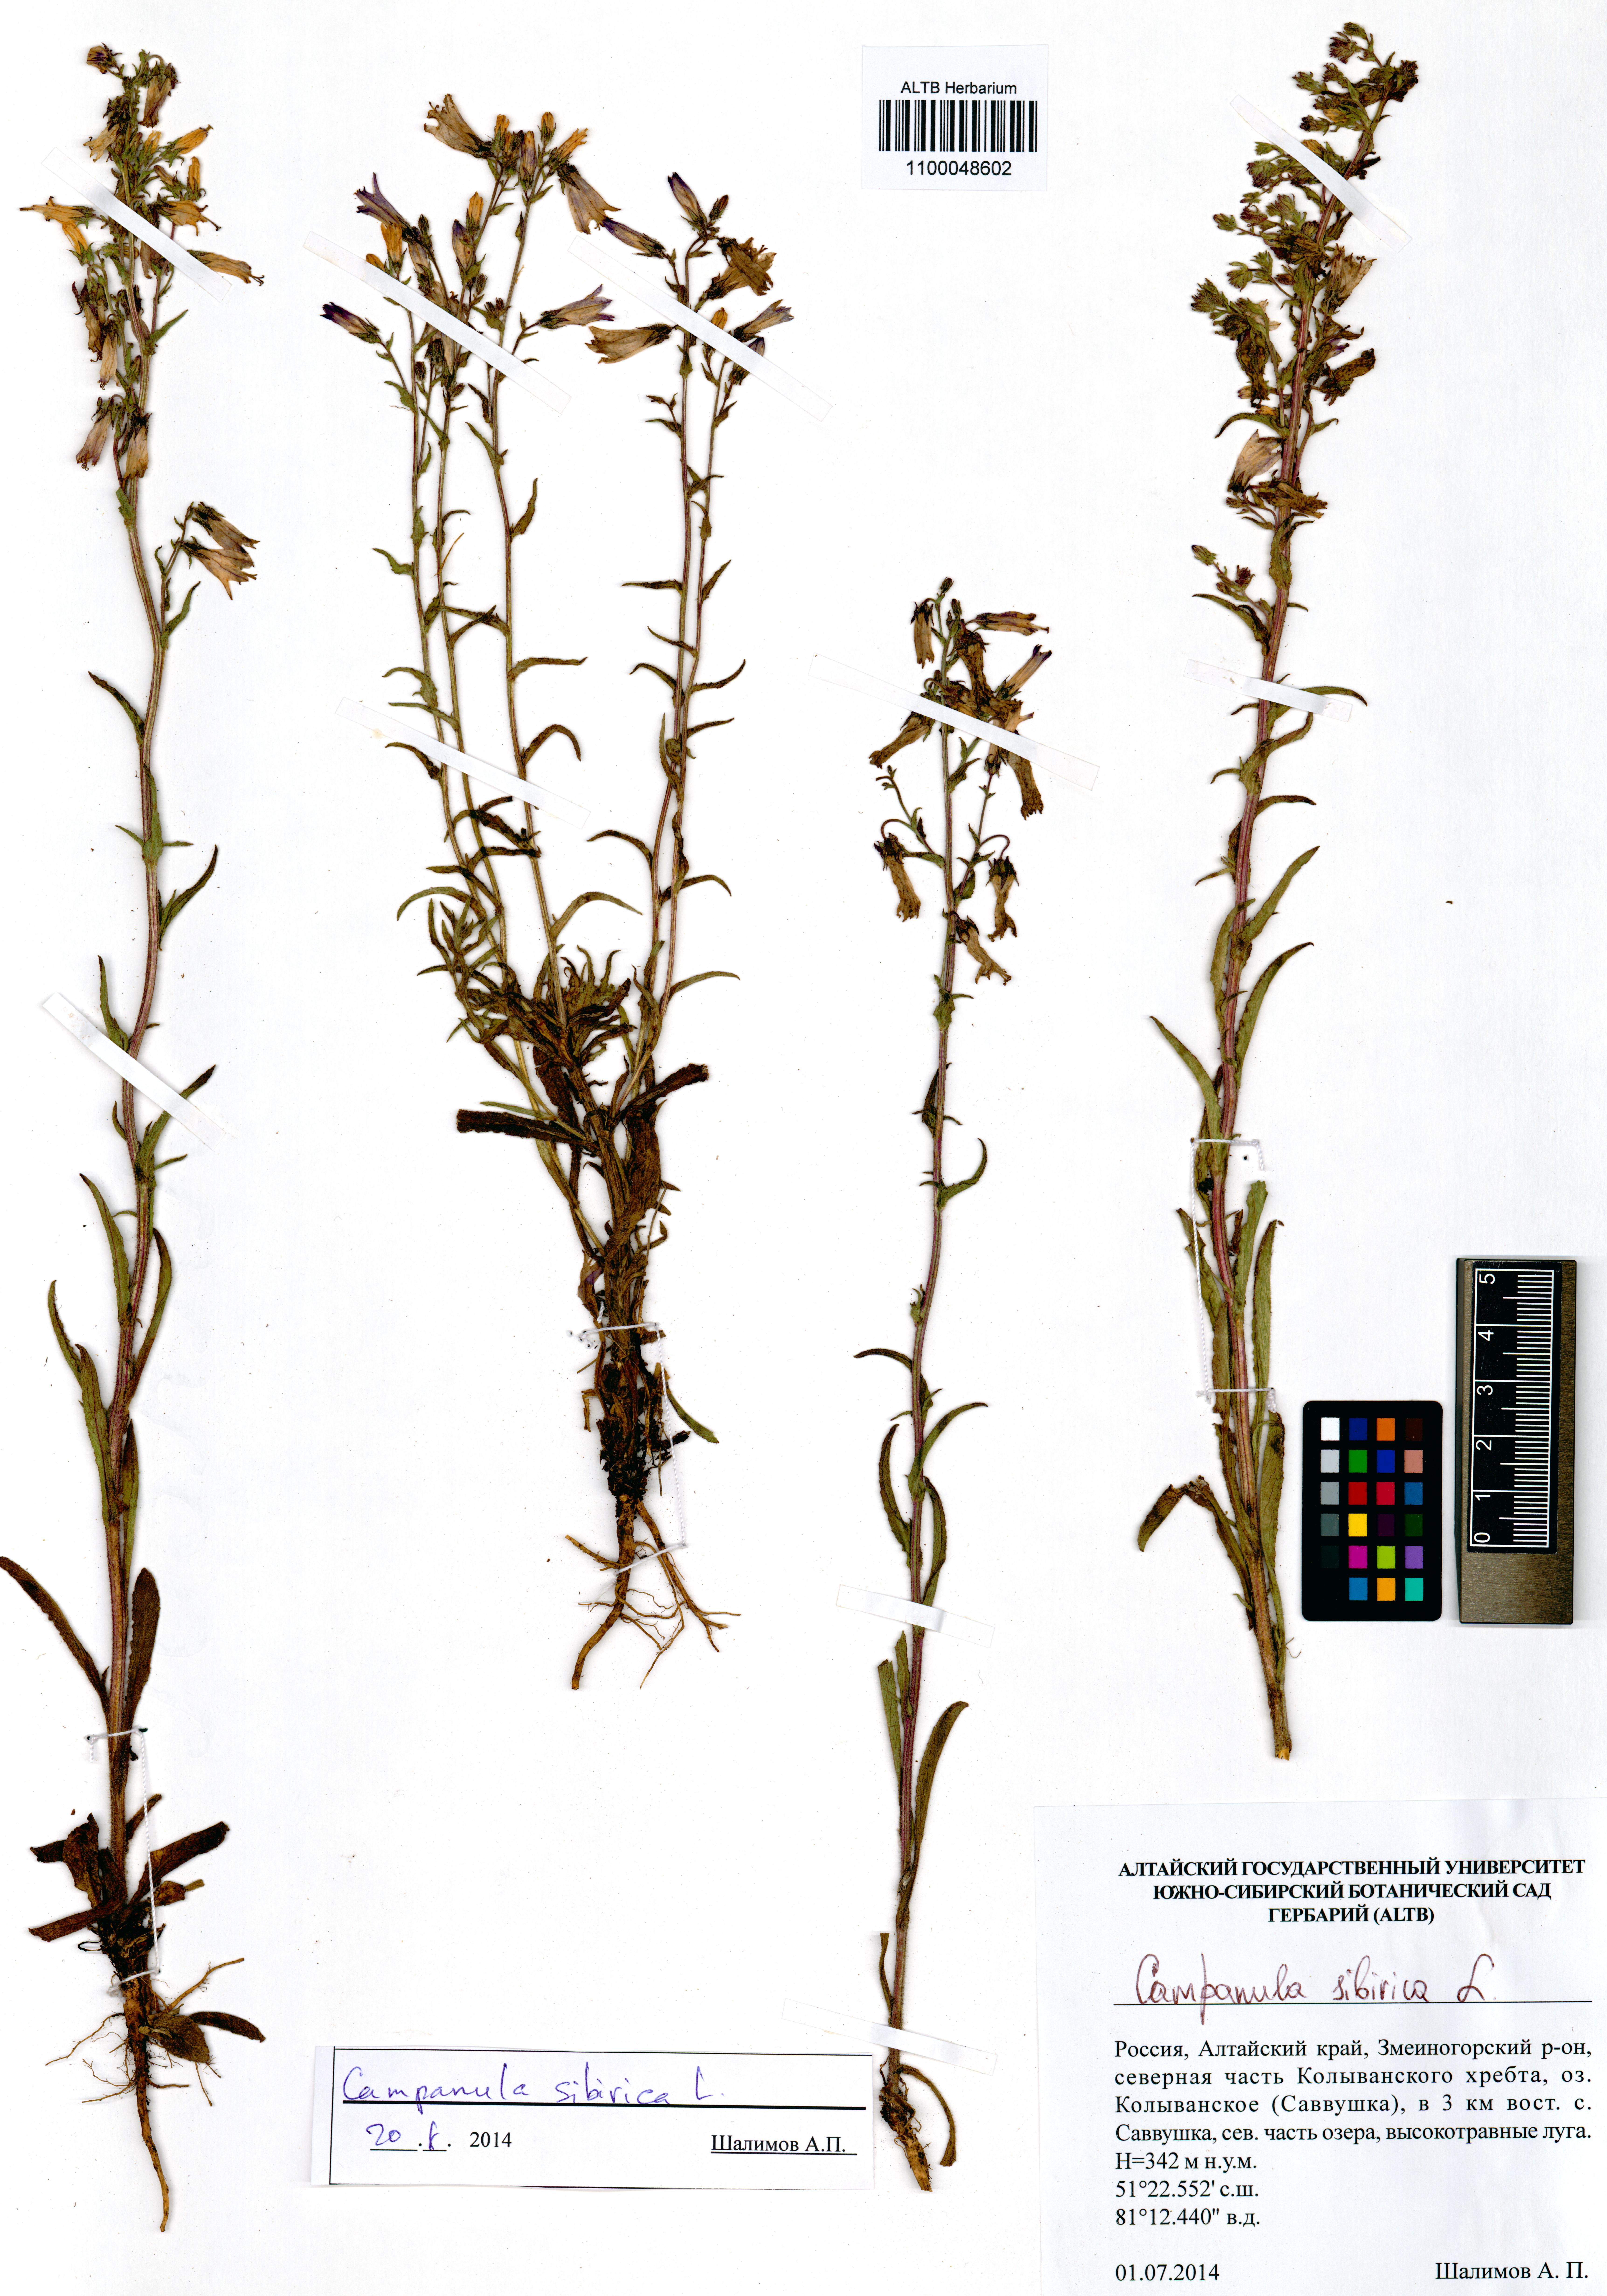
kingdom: Plantae
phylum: Tracheophyta
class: Magnoliopsida
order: Asterales
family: Campanulaceae
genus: Campanula
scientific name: Campanula sibirica
